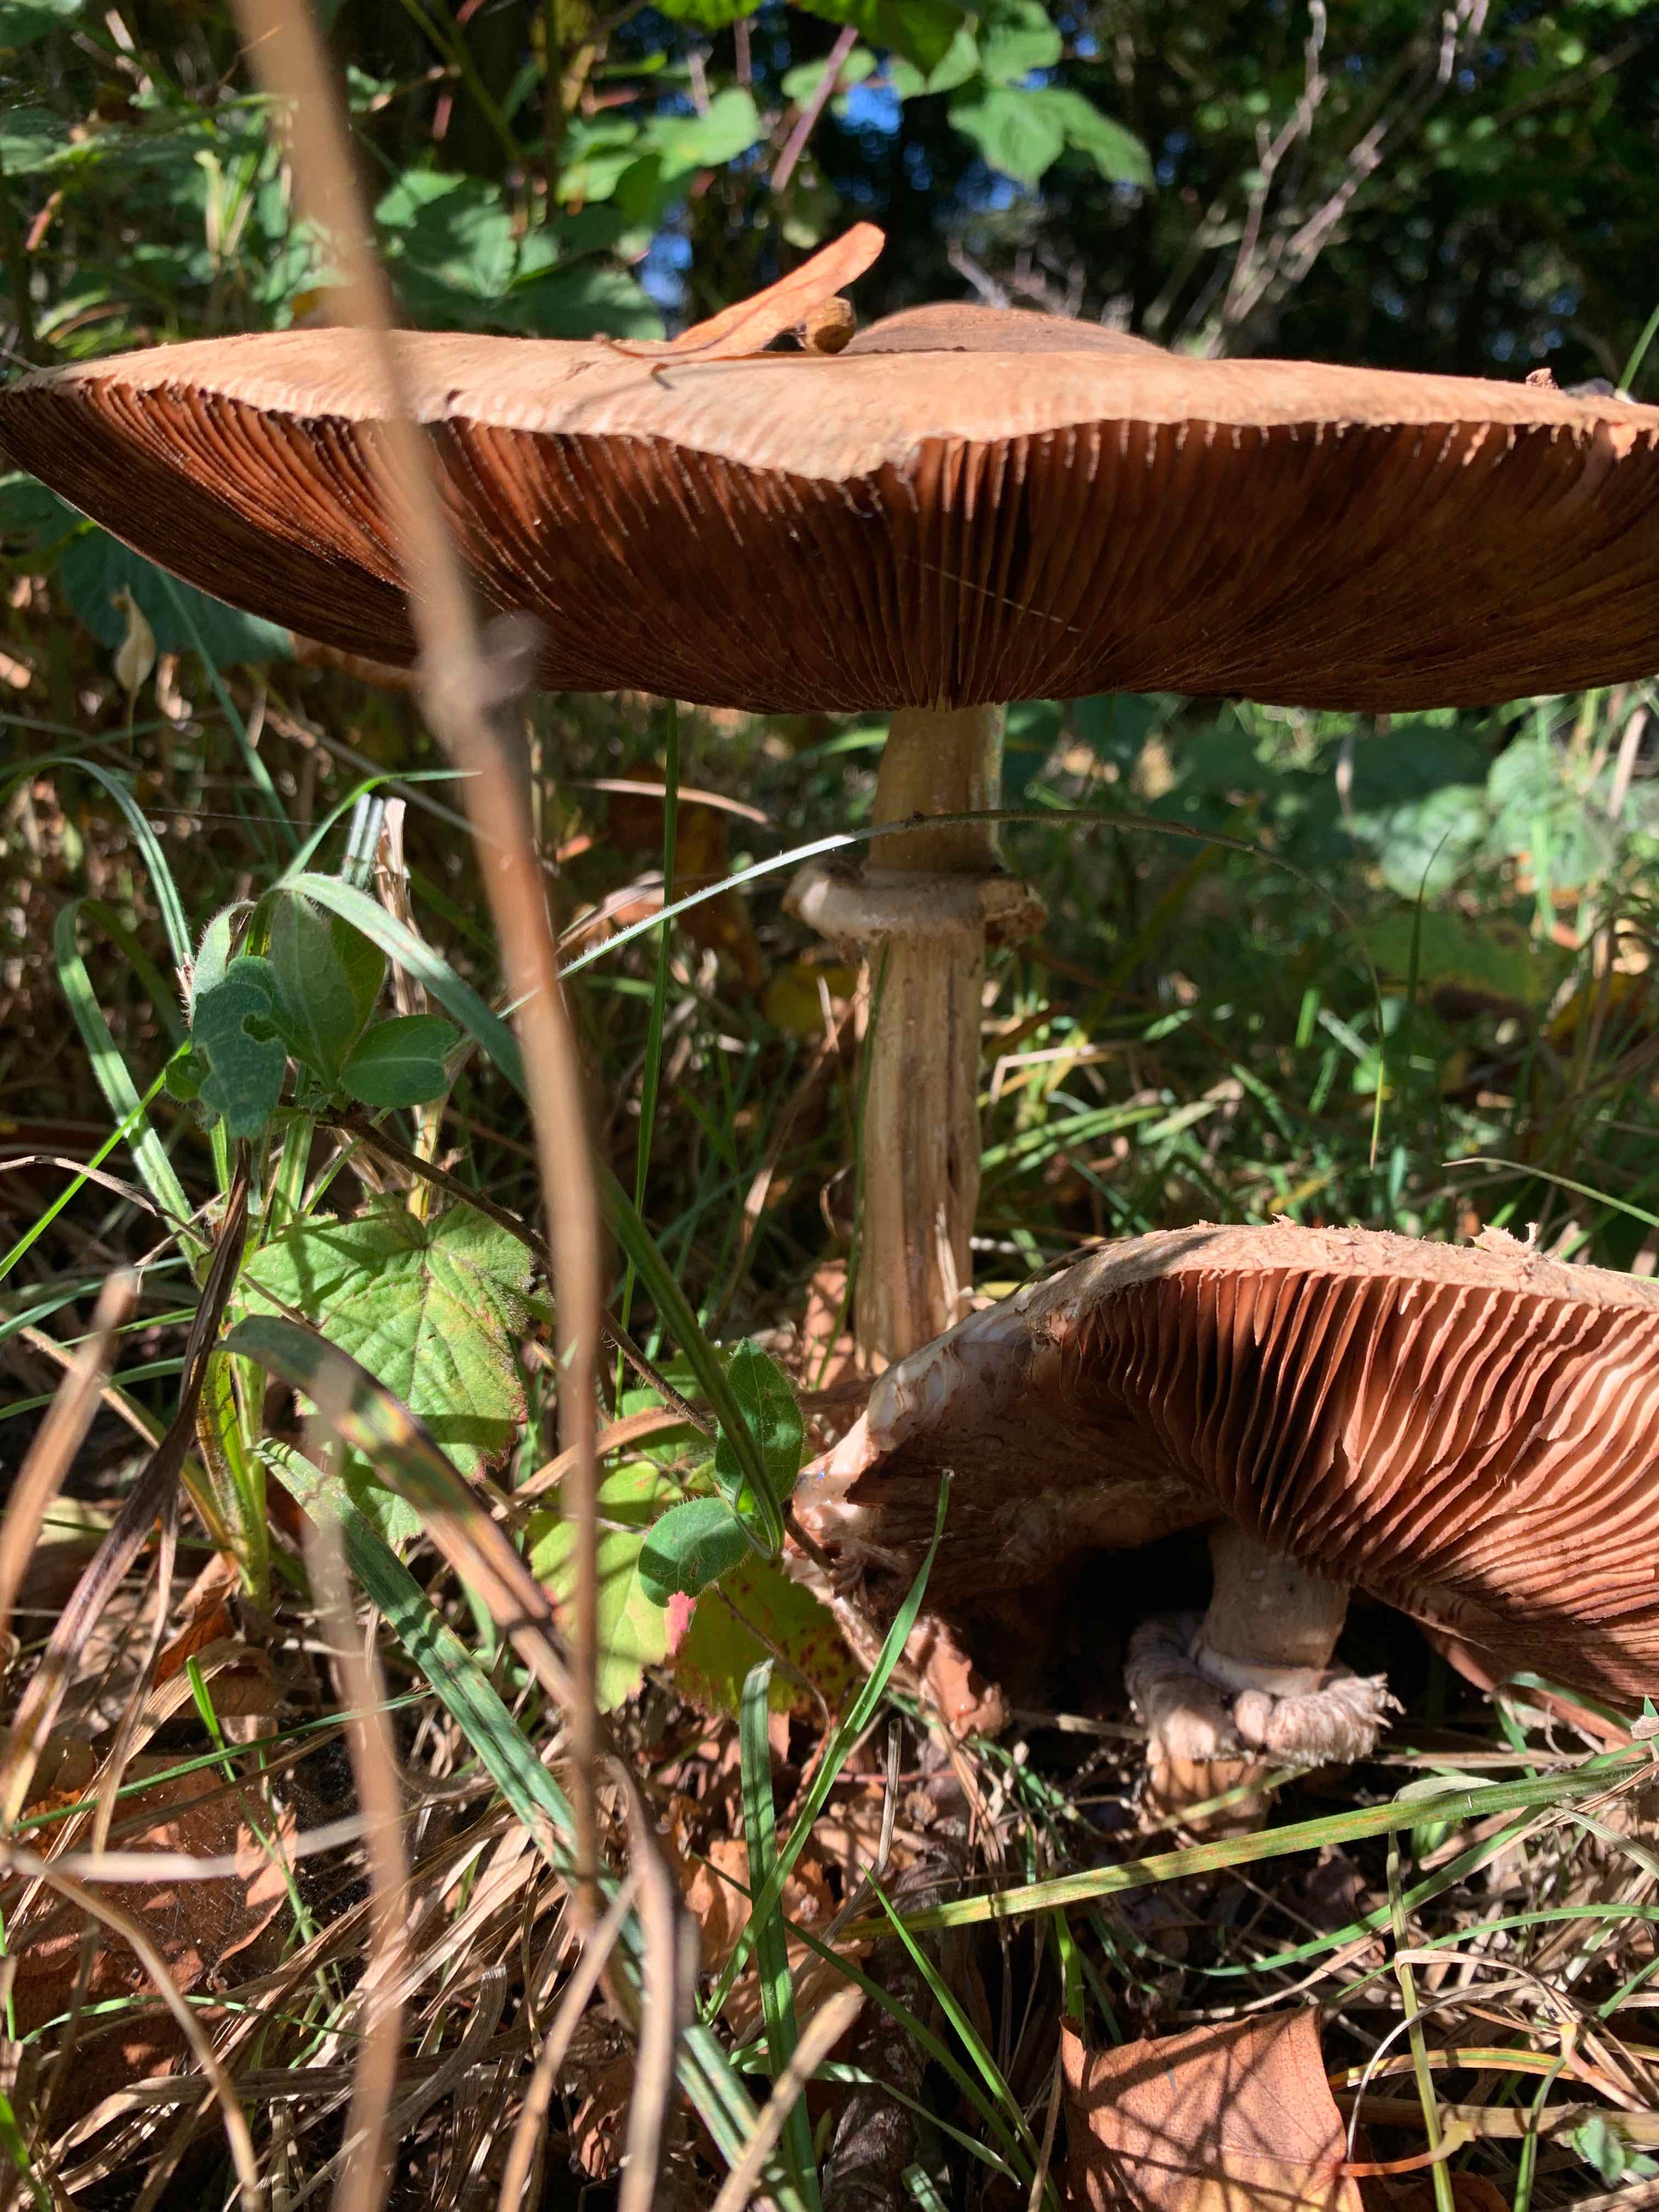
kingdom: Fungi
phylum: Basidiomycota
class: Agaricomycetes
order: Agaricales
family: Agaricaceae
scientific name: Agaricaceae
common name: champignonfamilien
